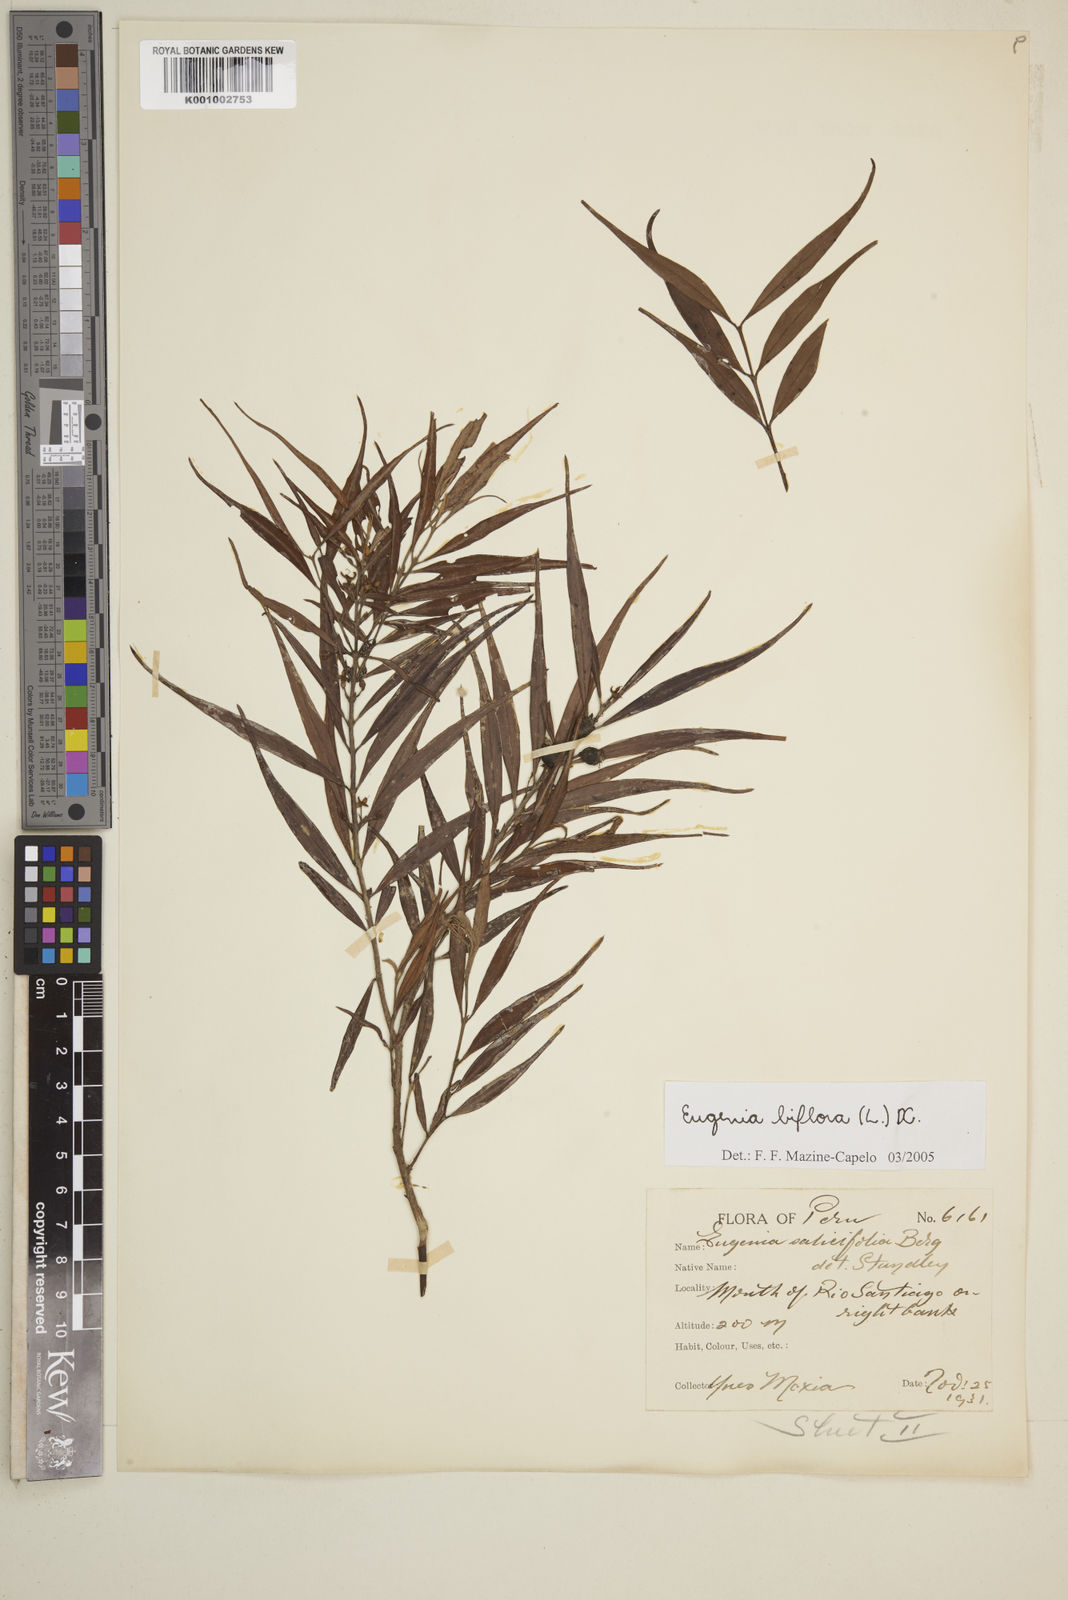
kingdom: Plantae
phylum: Tracheophyta
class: Magnoliopsida
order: Myrtales
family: Myrtaceae
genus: Eugenia
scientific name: Eugenia biflora
